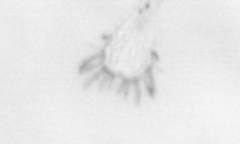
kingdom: Animalia
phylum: Arthropoda
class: Malacostraca
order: Decapoda
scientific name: Decapoda
